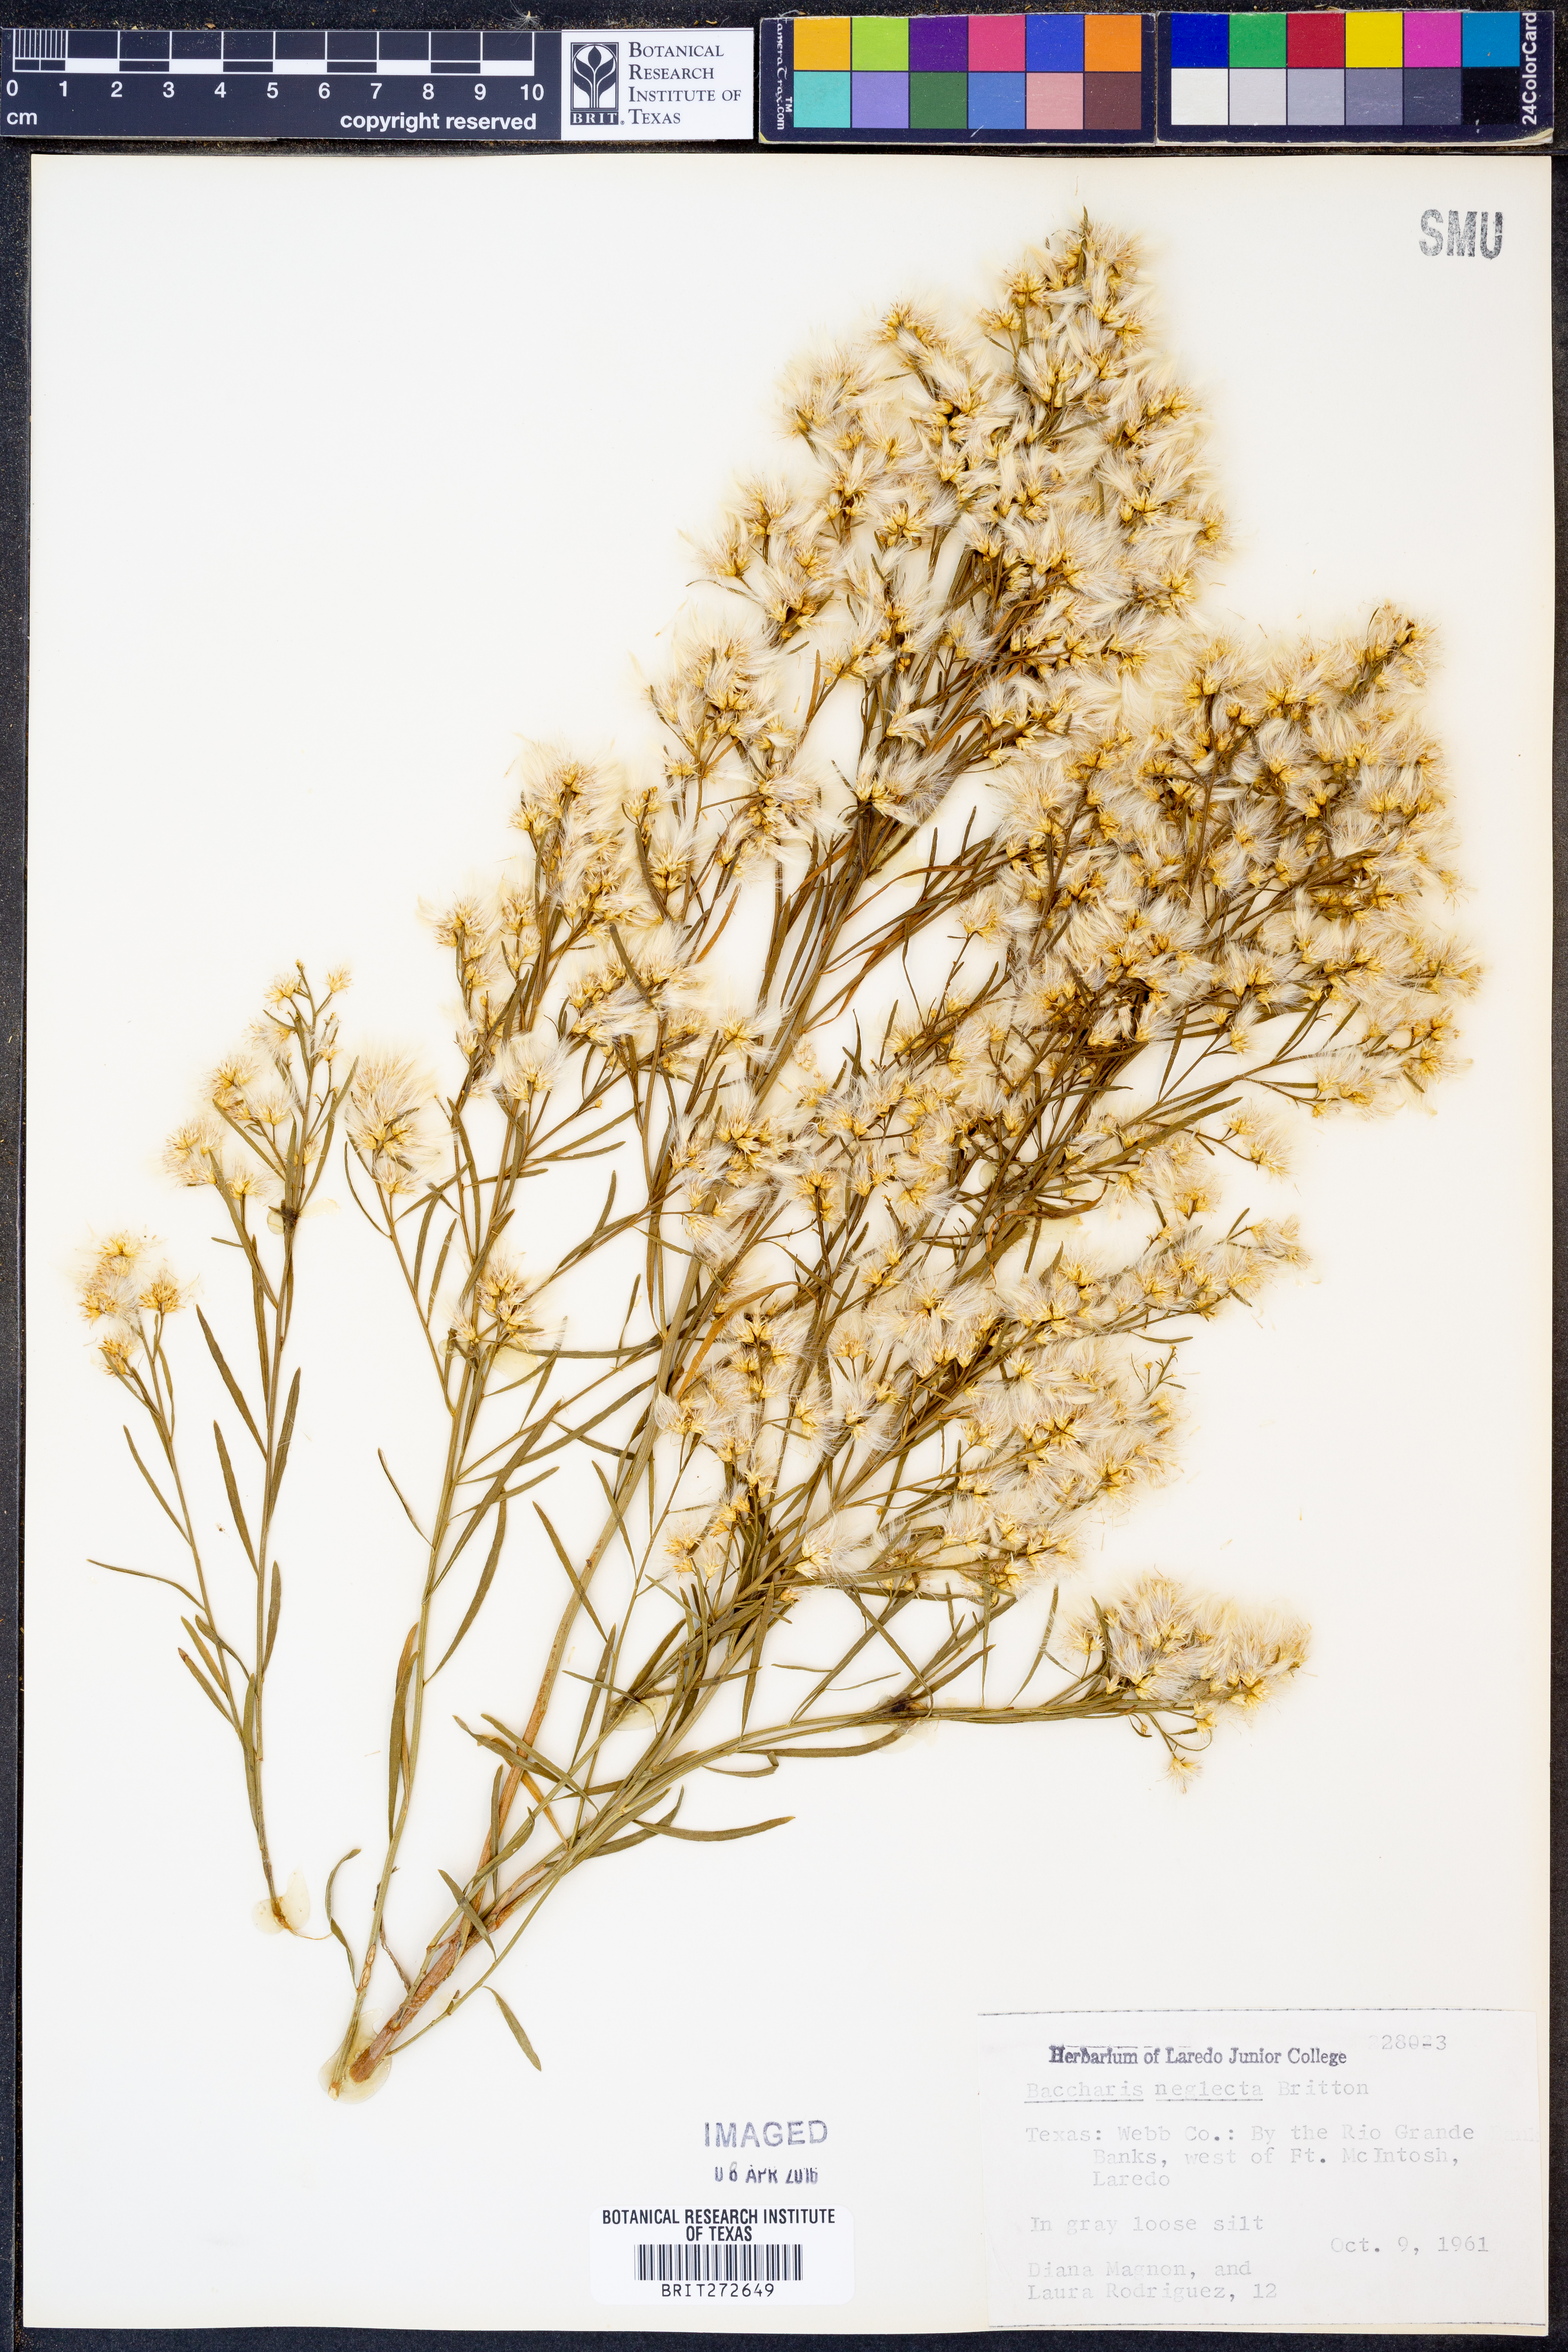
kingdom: Plantae
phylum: Tracheophyta
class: Magnoliopsida
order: Asterales
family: Asteraceae
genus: Baccharis
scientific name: Baccharis neglecta
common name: Roosevelt-weed
